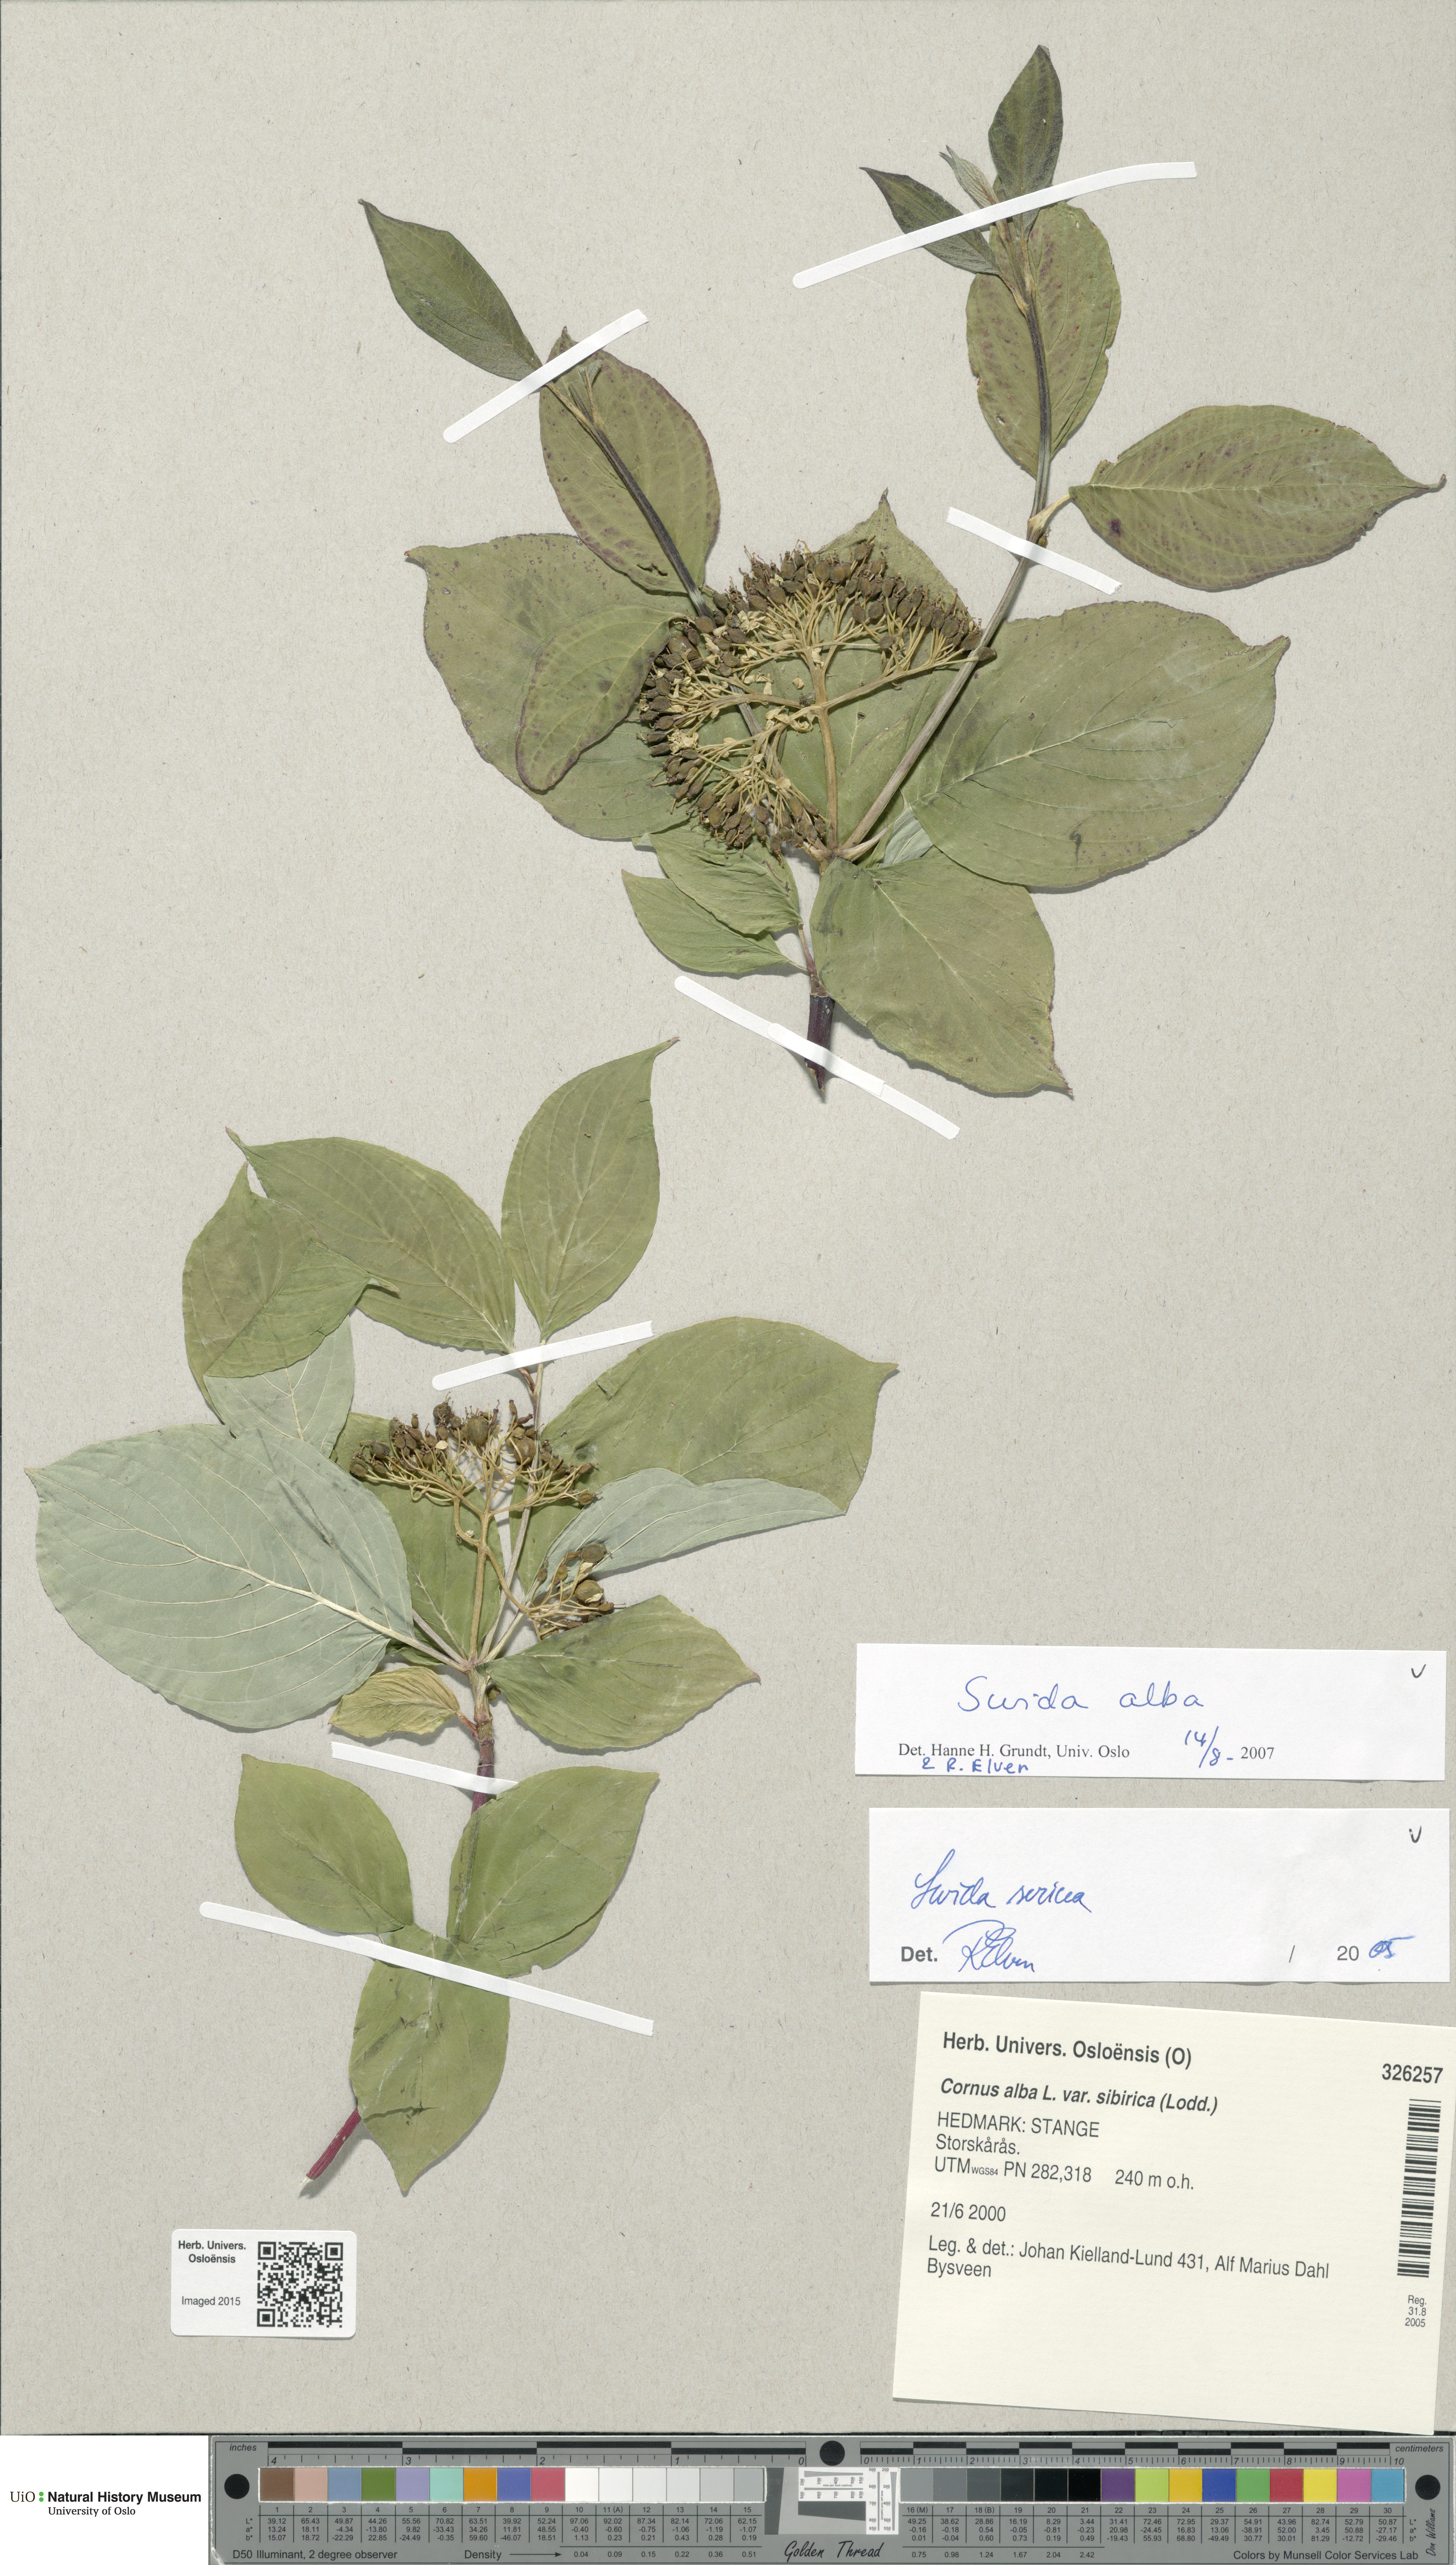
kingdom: Plantae
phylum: Tracheophyta
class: Magnoliopsida
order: Cornales
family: Cornaceae
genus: Cornus
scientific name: Cornus alba
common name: White dogwood
